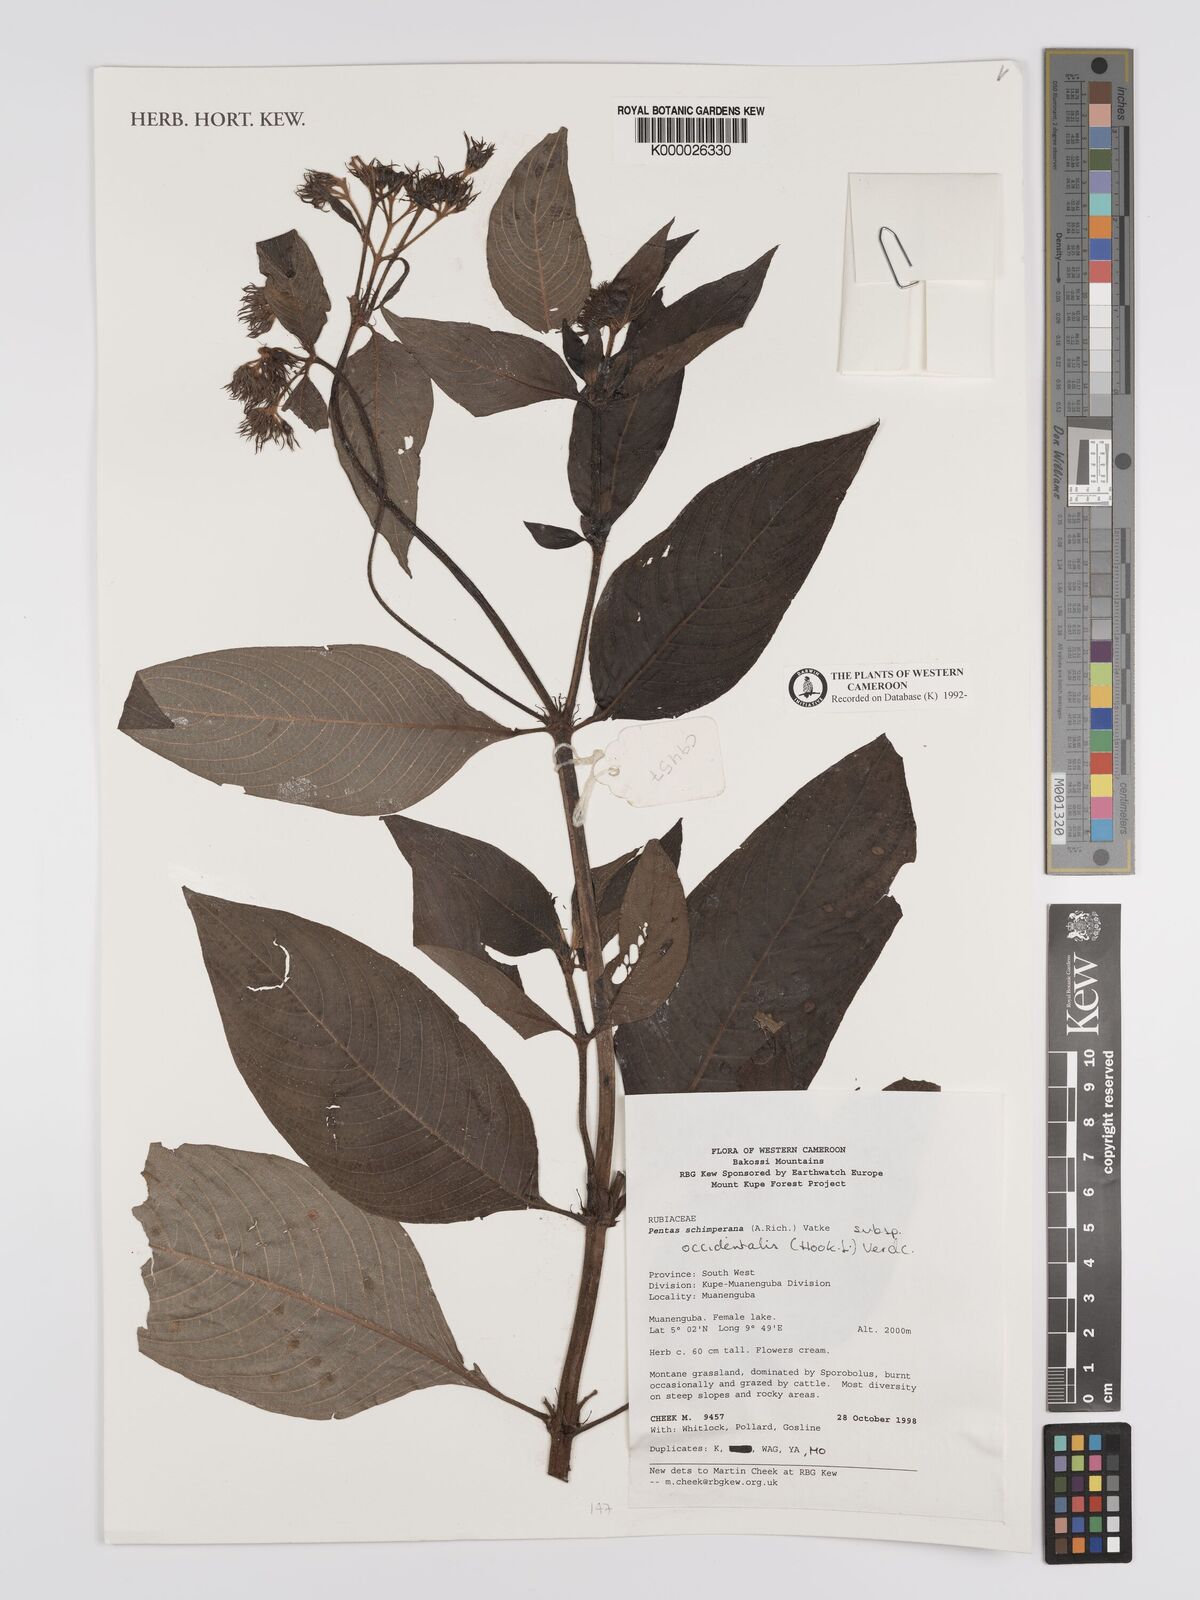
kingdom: Plantae
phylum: Tracheophyta
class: Magnoliopsida
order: Gentianales
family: Rubiaceae
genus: Phyllopentas
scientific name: Phyllopentas schimperi
